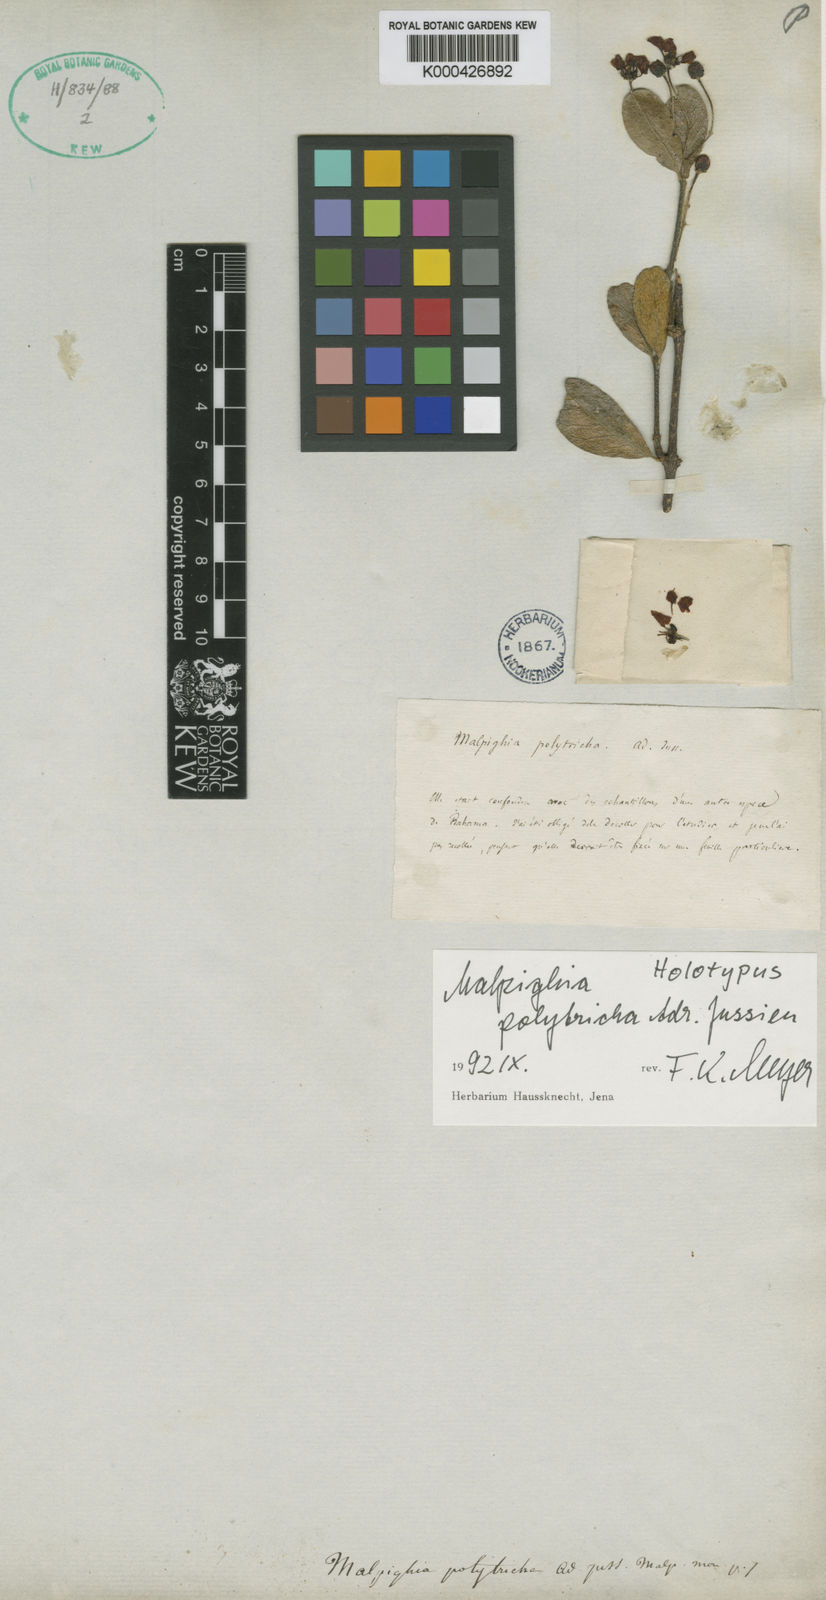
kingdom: Plantae
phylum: Tracheophyta
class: Magnoliopsida
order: Malpighiales
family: Malpighiaceae
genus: Malpighia
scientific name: Malpighia polytricha
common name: Touch-me-not
